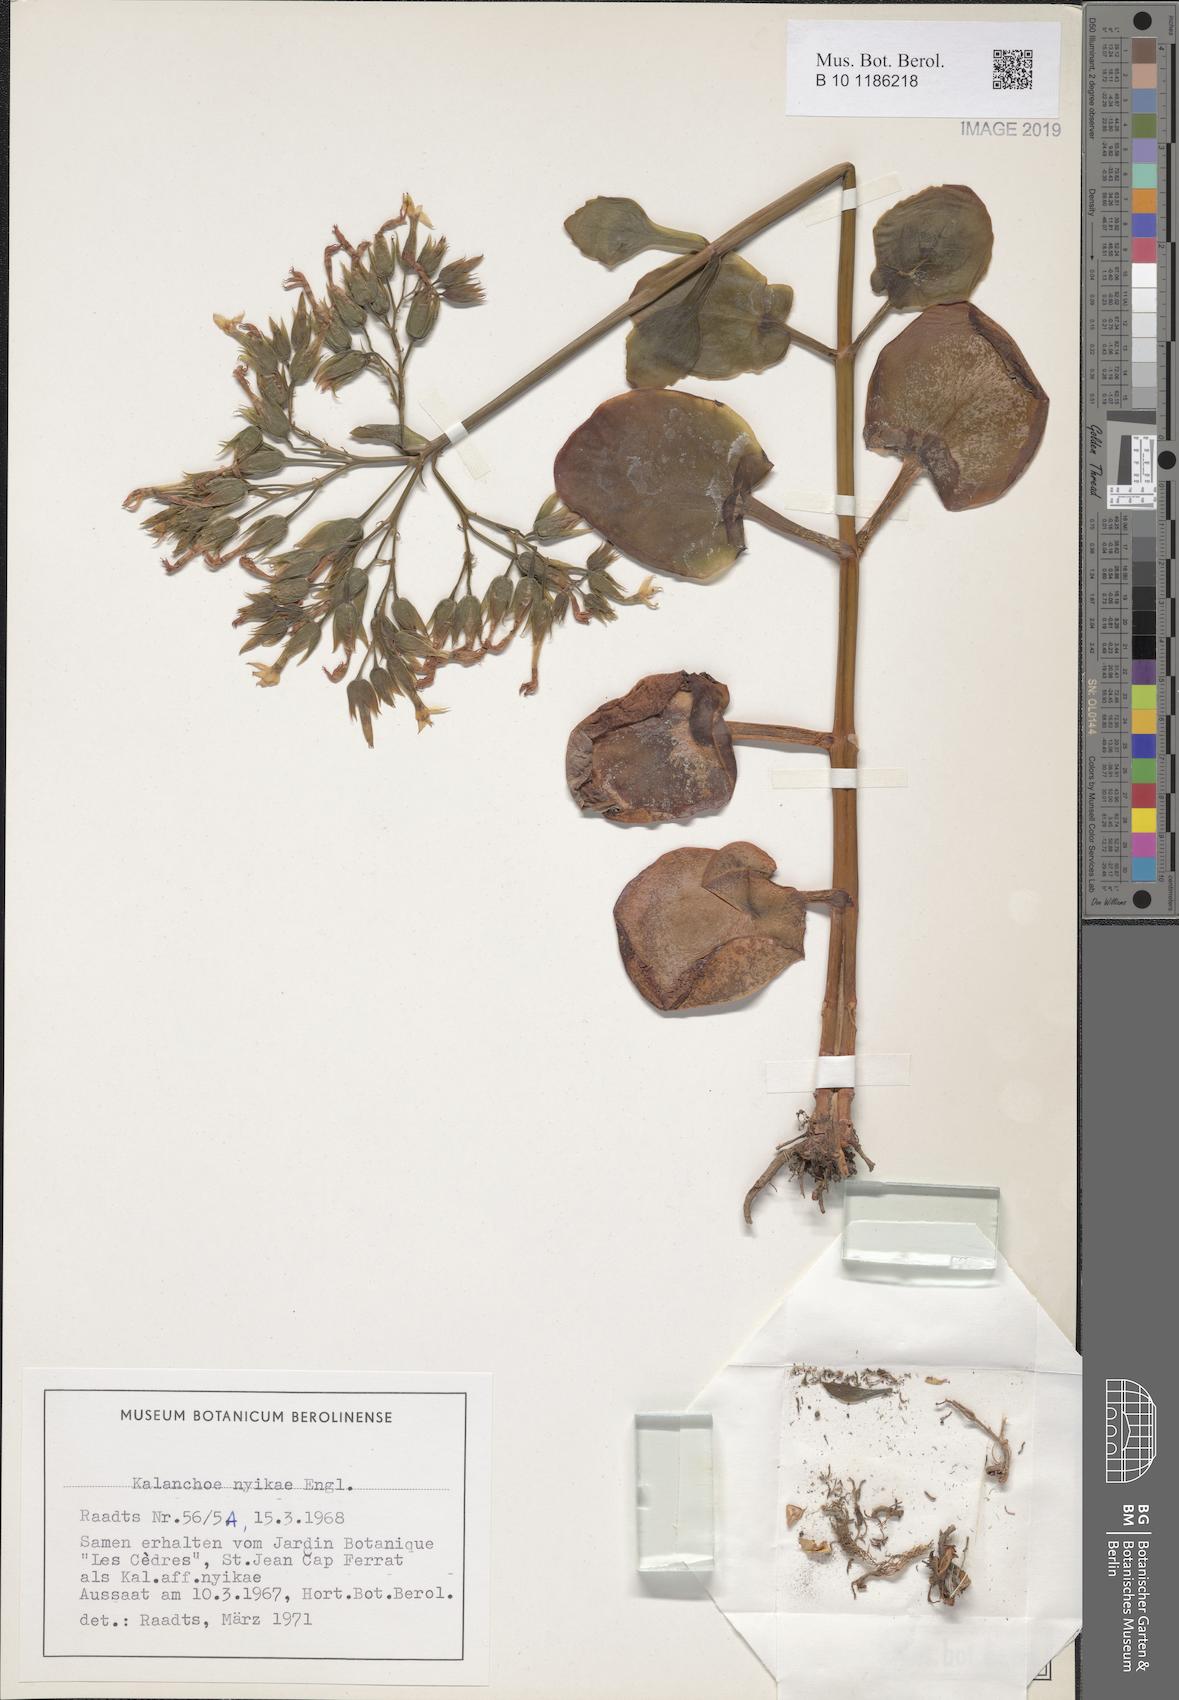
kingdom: Plantae
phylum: Tracheophyta
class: Magnoliopsida
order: Saxifragales
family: Crassulaceae
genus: Kalanchoe
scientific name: Kalanchoe nyikae
